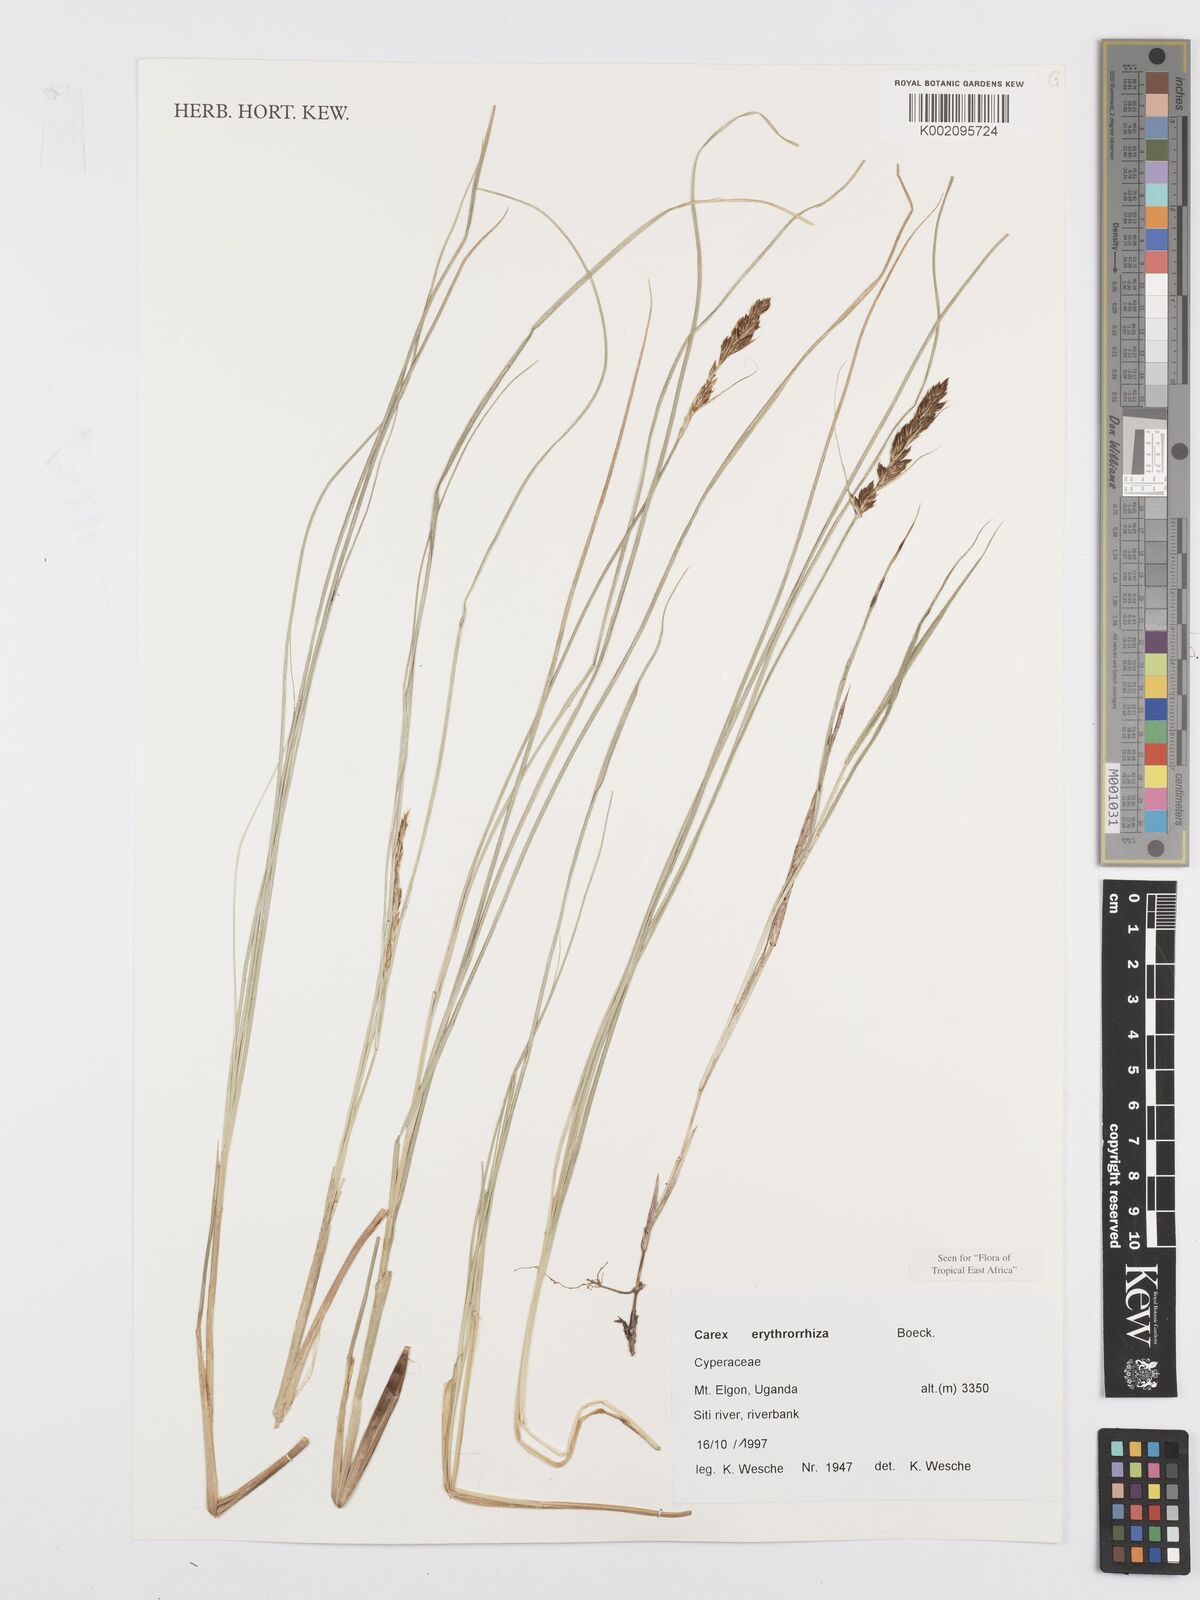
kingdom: Plantae
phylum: Tracheophyta
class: Liliopsida
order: Poales
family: Cyperaceae
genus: Carex
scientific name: Carex erythrorrhiza
